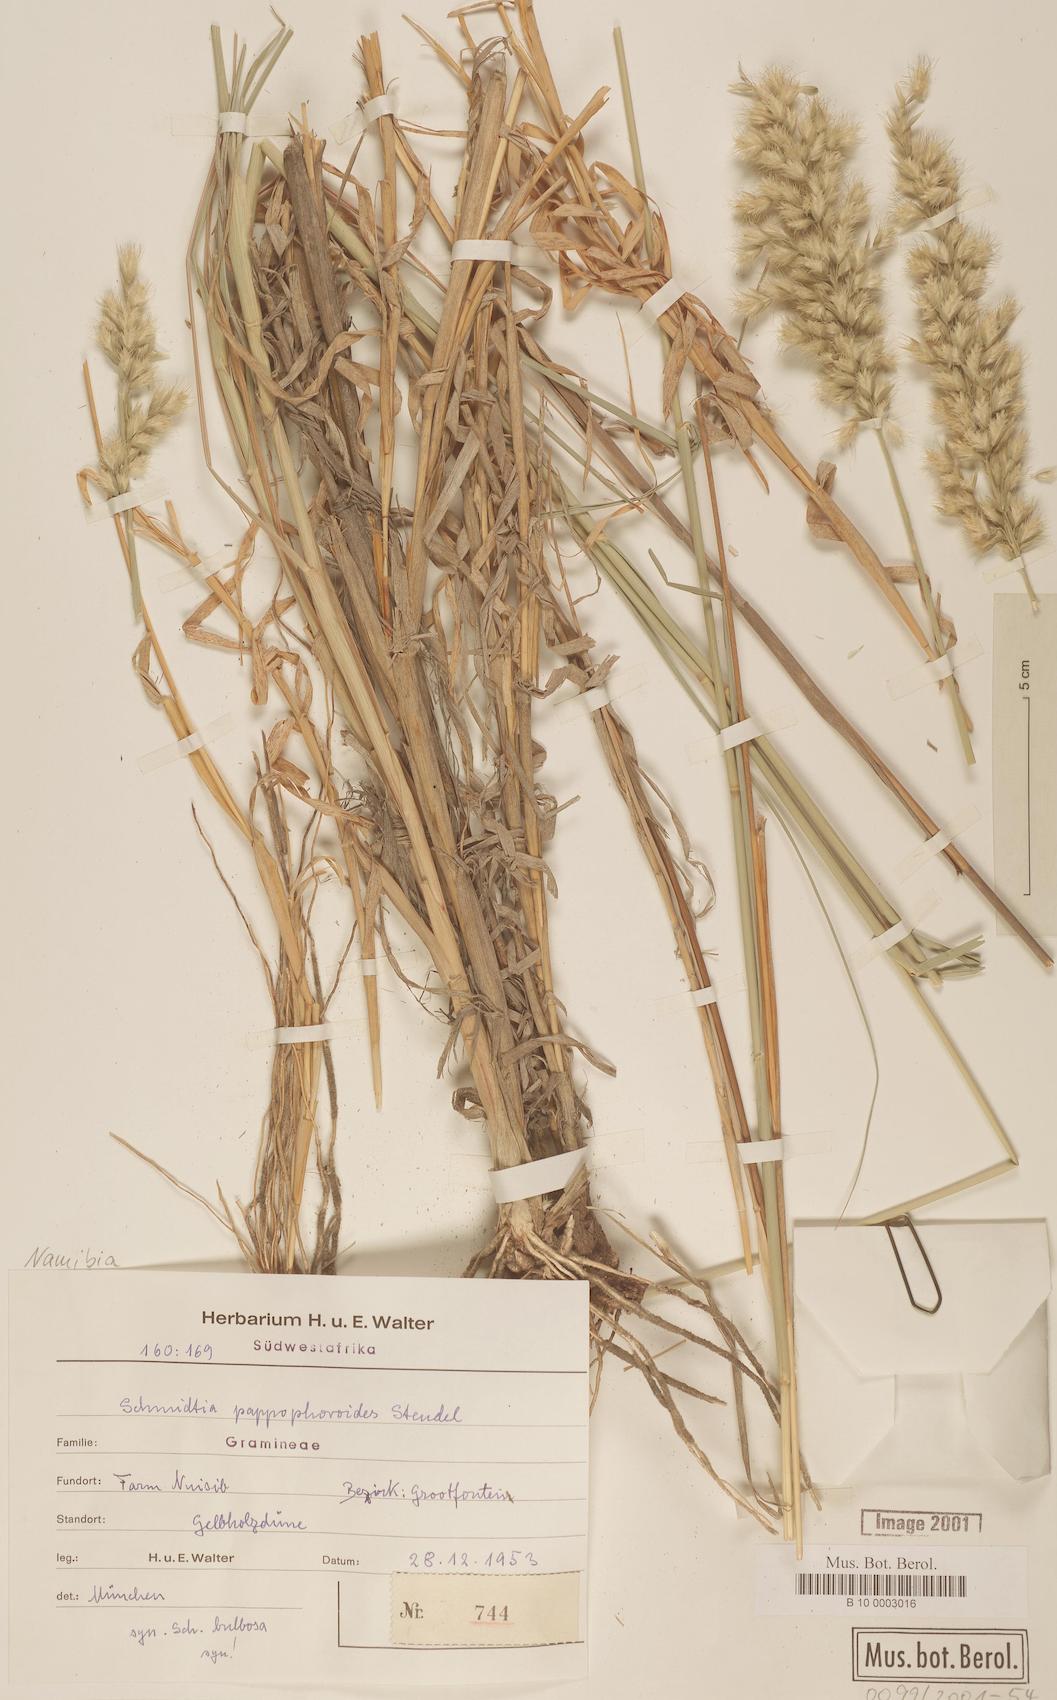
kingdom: Plantae
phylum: Tracheophyta
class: Liliopsida
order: Poales
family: Poaceae
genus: Schmidtia
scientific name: Schmidtia pappophoroides
